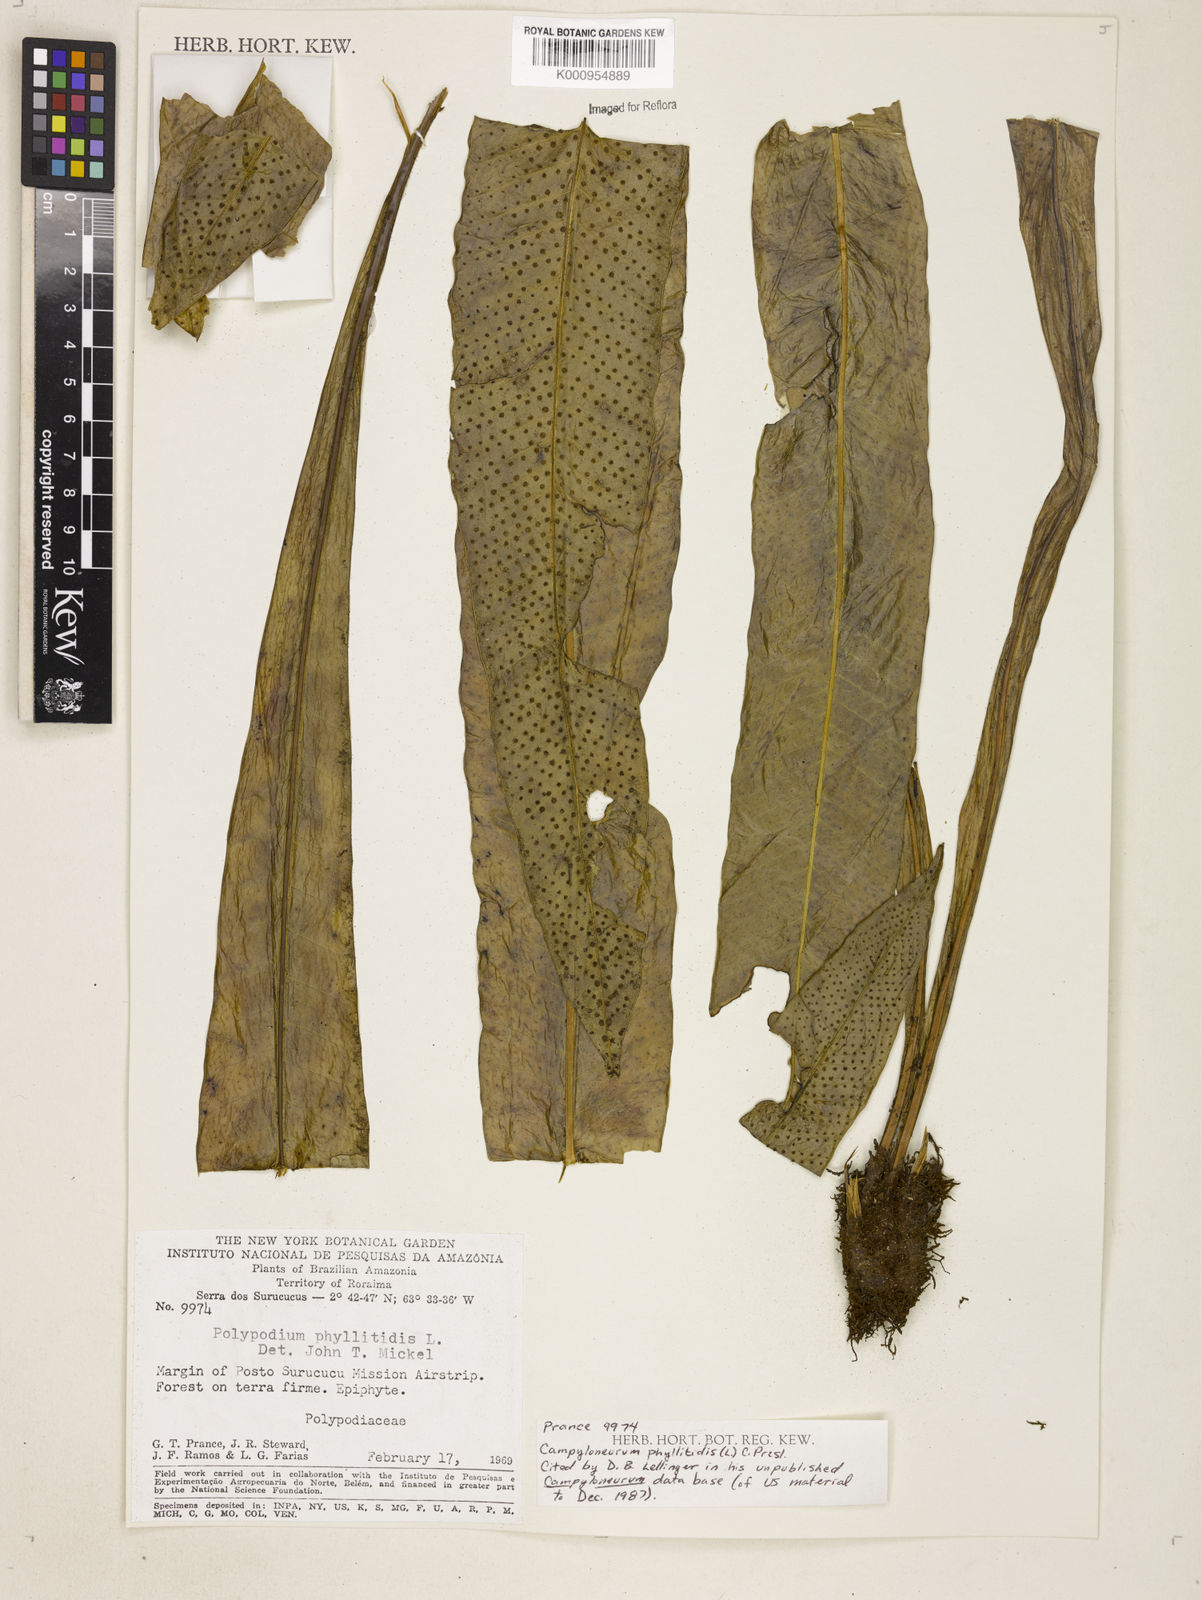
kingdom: Plantae
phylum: Tracheophyta
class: Polypodiopsida
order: Polypodiales
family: Polypodiaceae
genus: Campyloneurum
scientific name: Campyloneurum phyllitidis
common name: Cow-tongue fern
